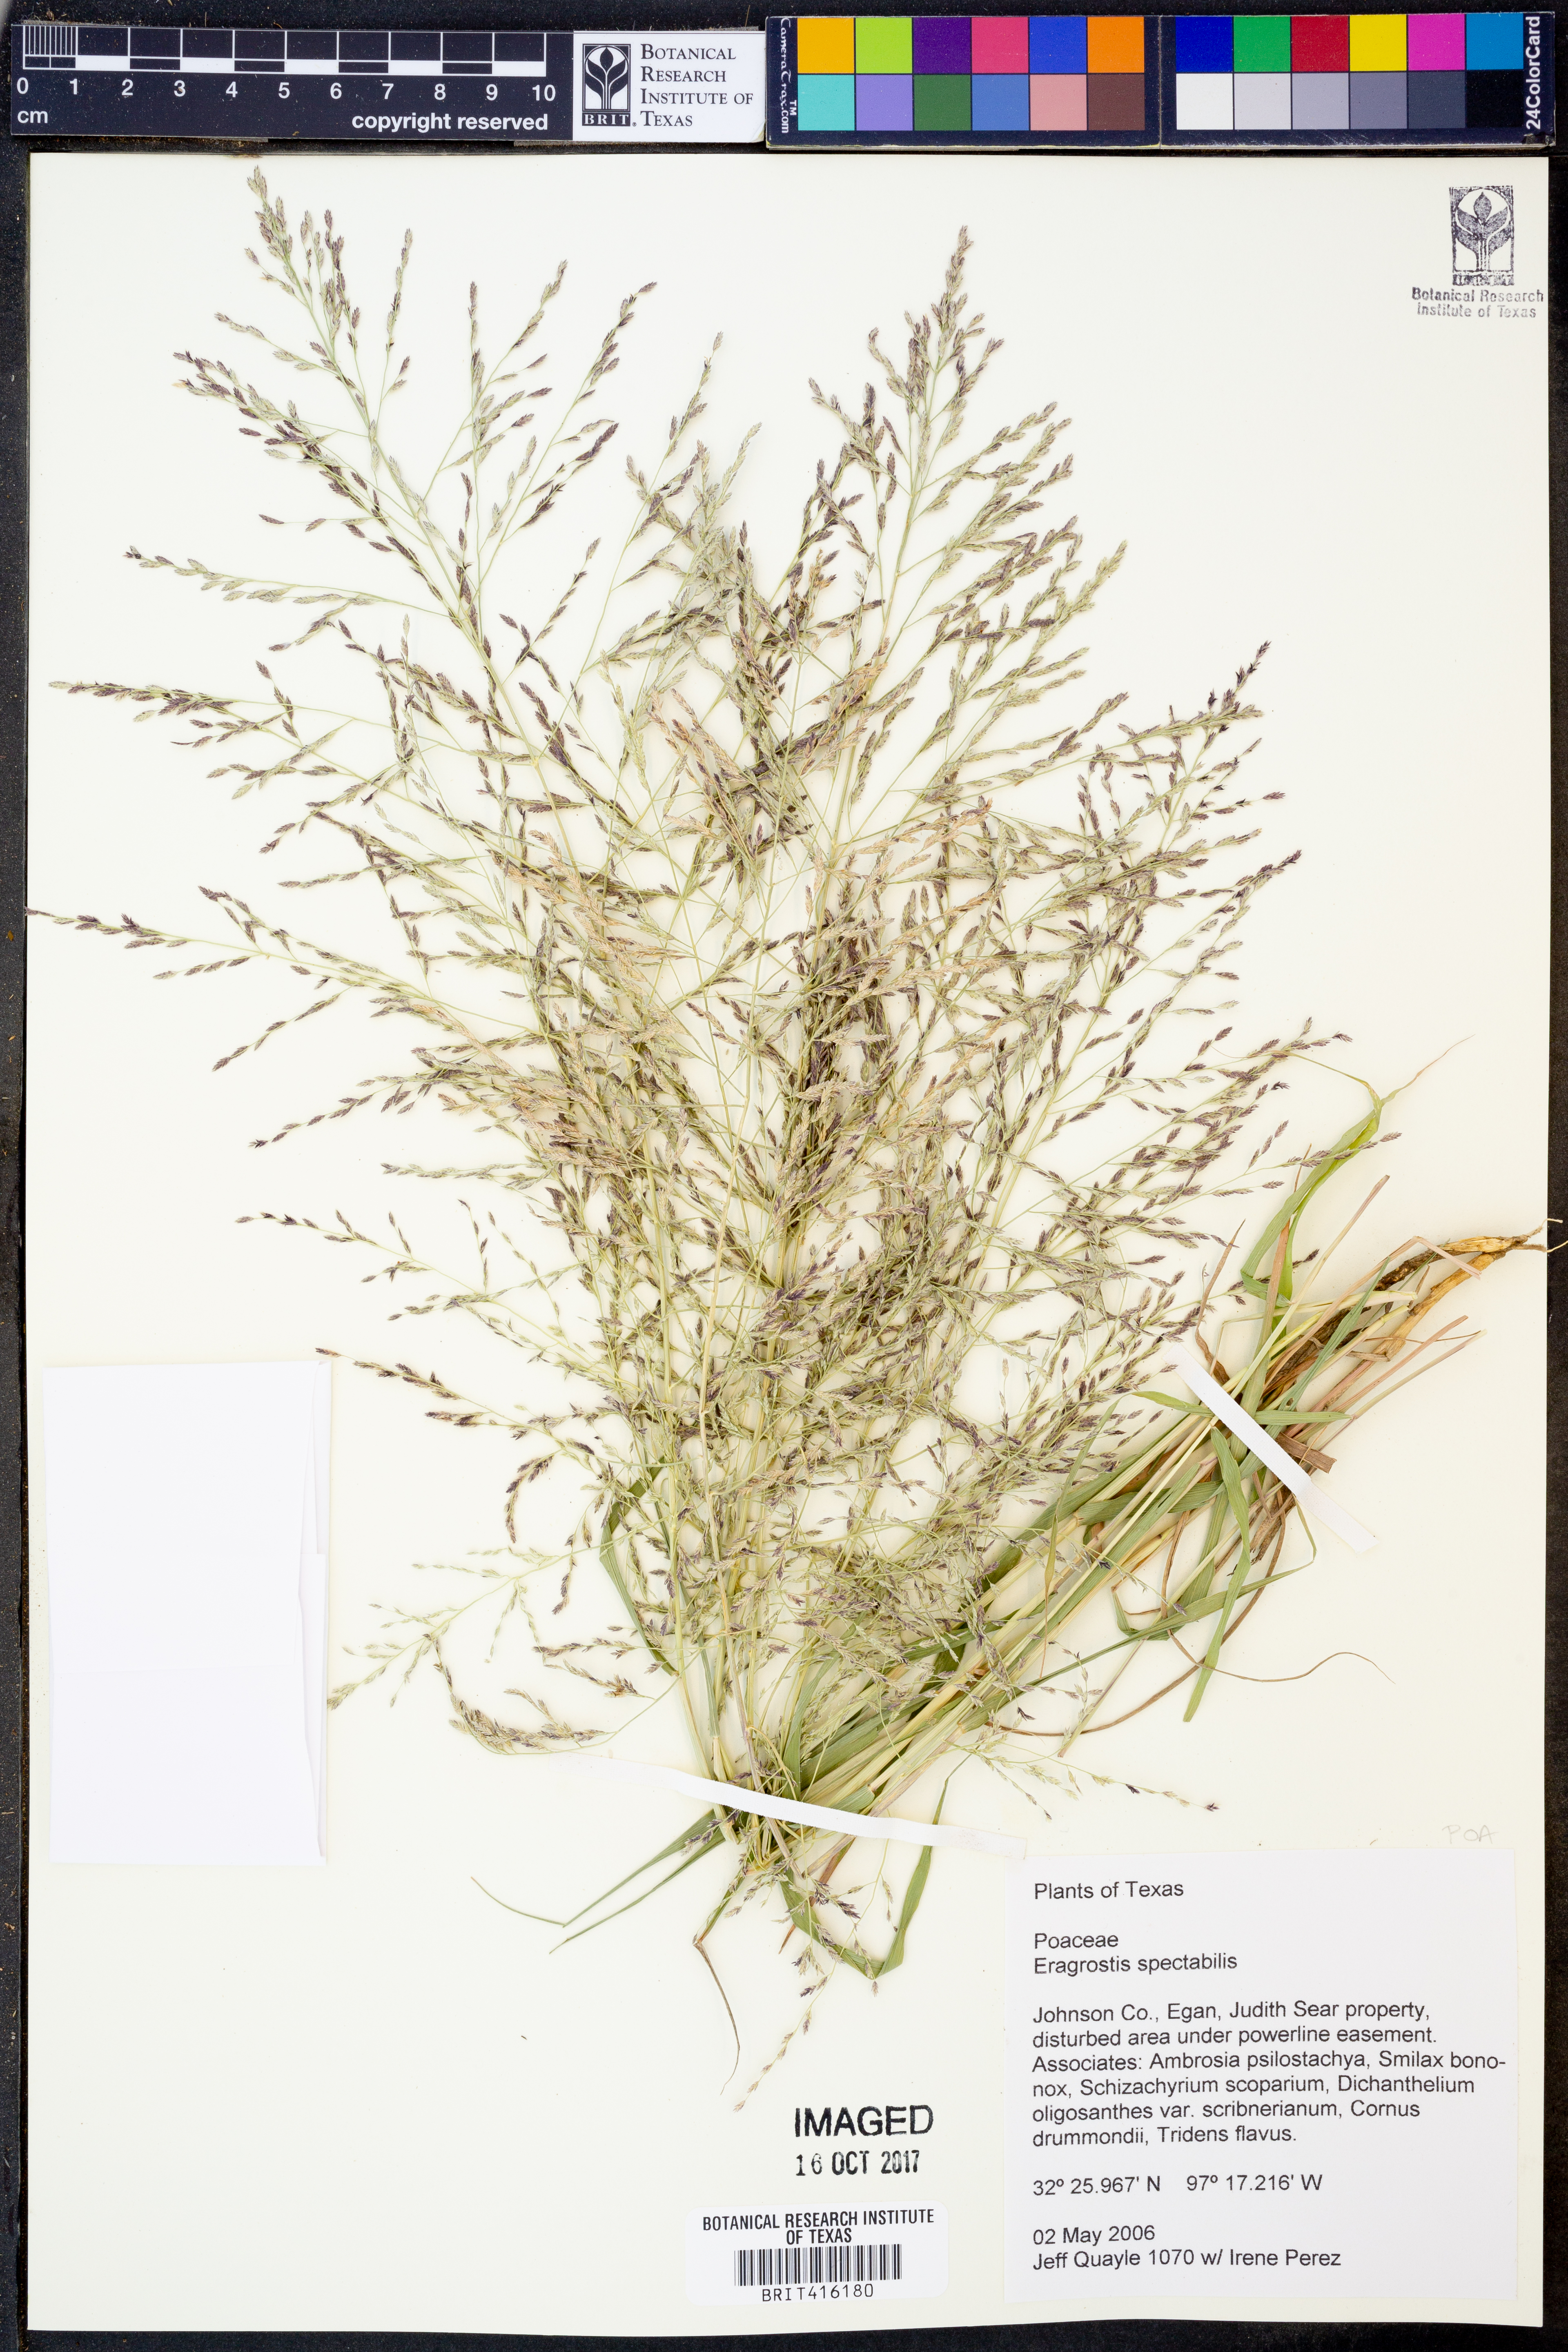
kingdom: Plantae
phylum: Tracheophyta
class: Liliopsida
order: Poales
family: Poaceae
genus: Eragrostis
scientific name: Eragrostis spectabilis
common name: Petticoat-climber
